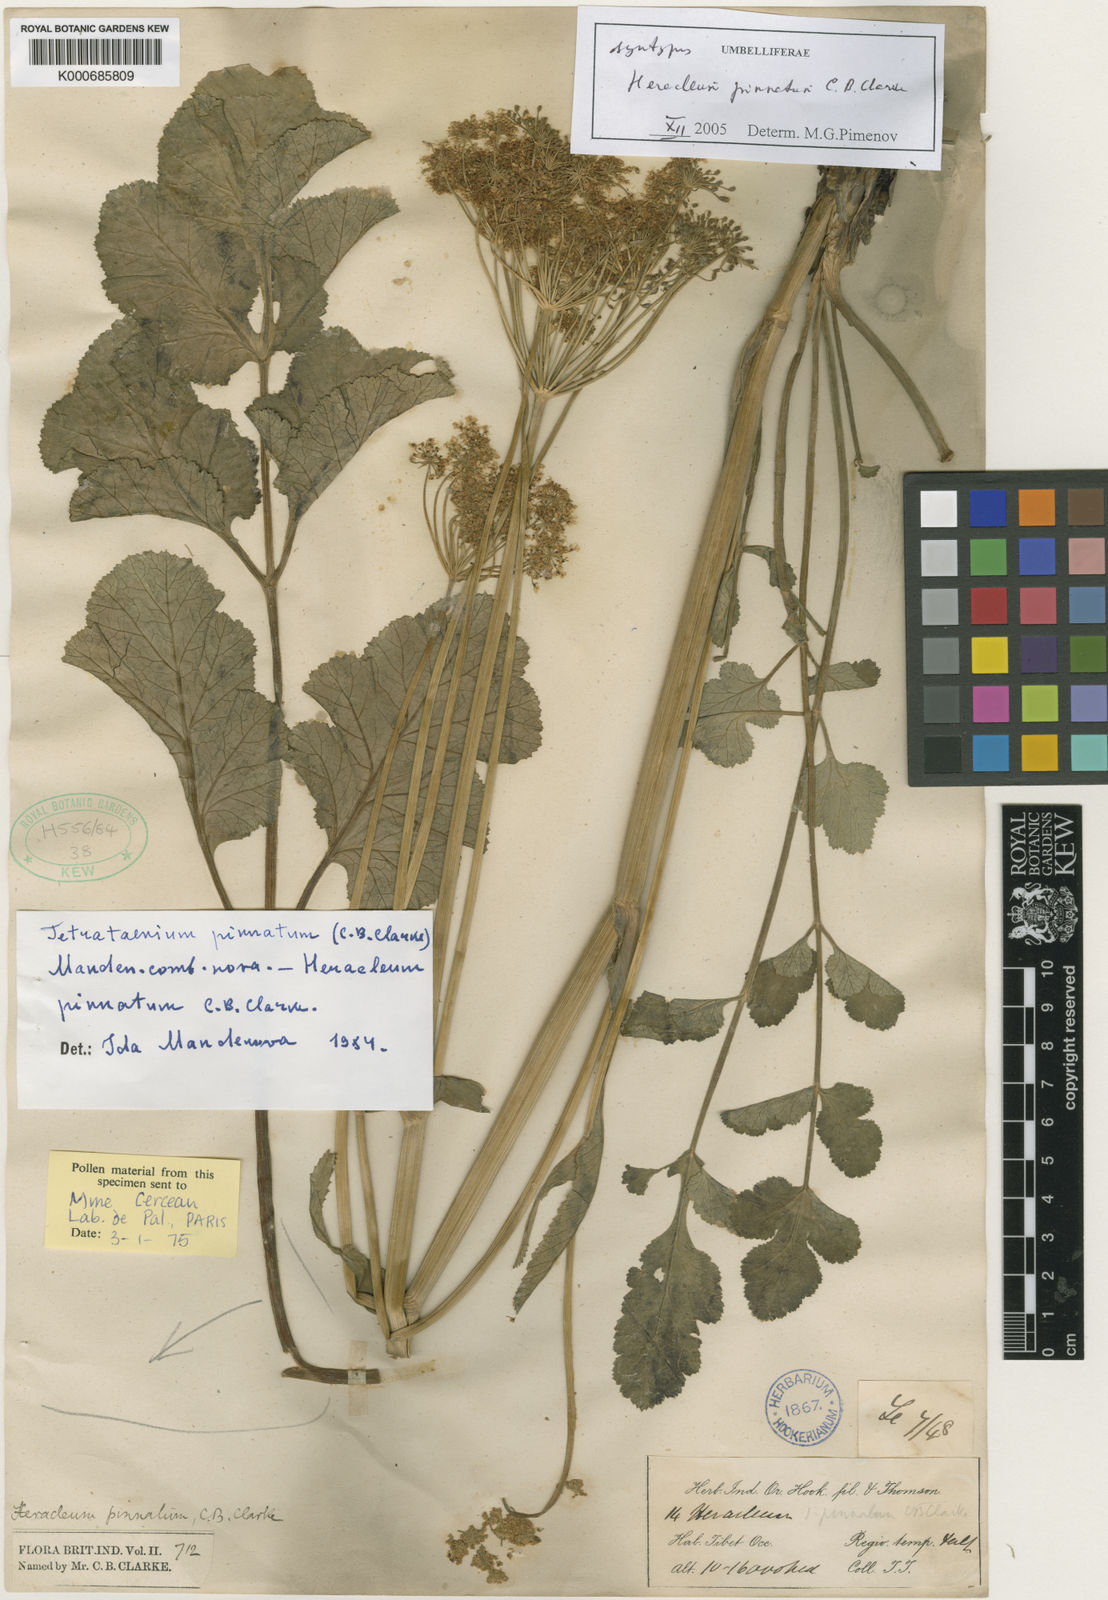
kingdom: Plantae
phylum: Tracheophyta
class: Magnoliopsida
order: Apiales
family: Apiaceae
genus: Tetrataenium
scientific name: Tetrataenium pinnatum
